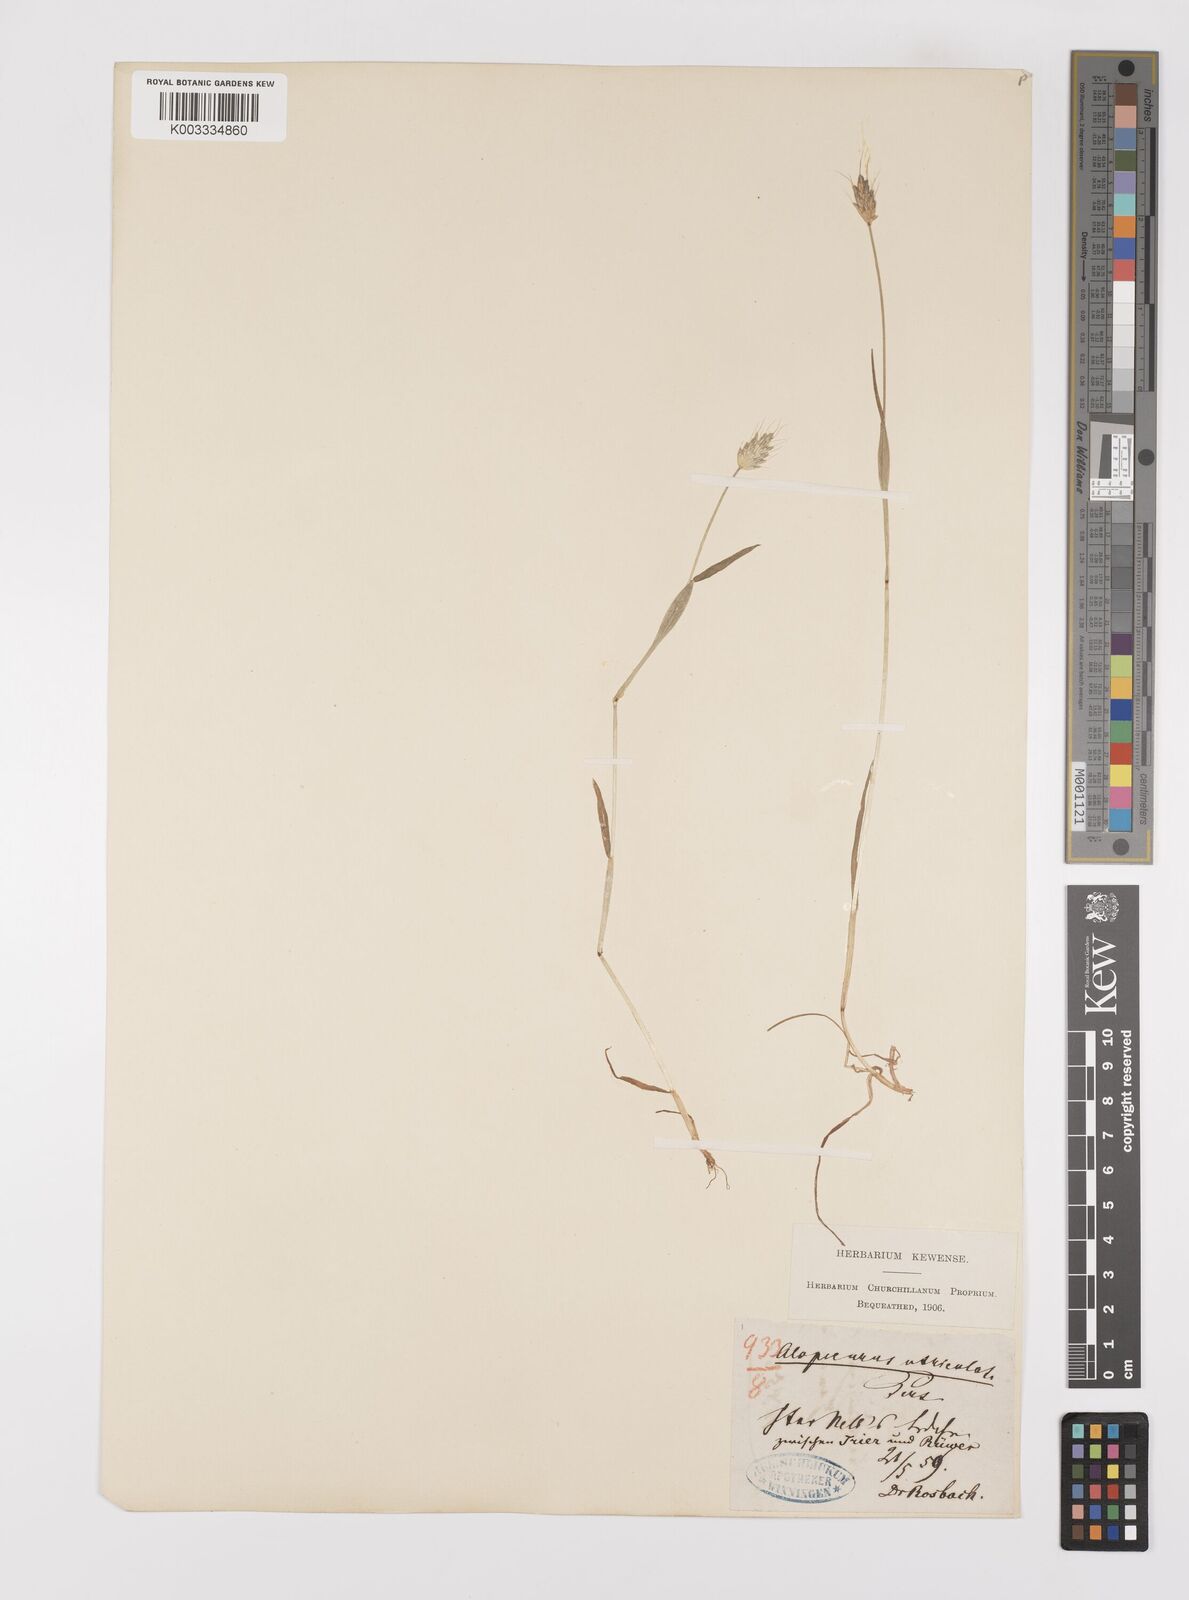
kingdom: Plantae
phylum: Tracheophyta
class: Liliopsida
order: Poales
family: Poaceae
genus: Alopecurus
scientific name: Alopecurus rendlei
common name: Rendle's meadow foxtail
